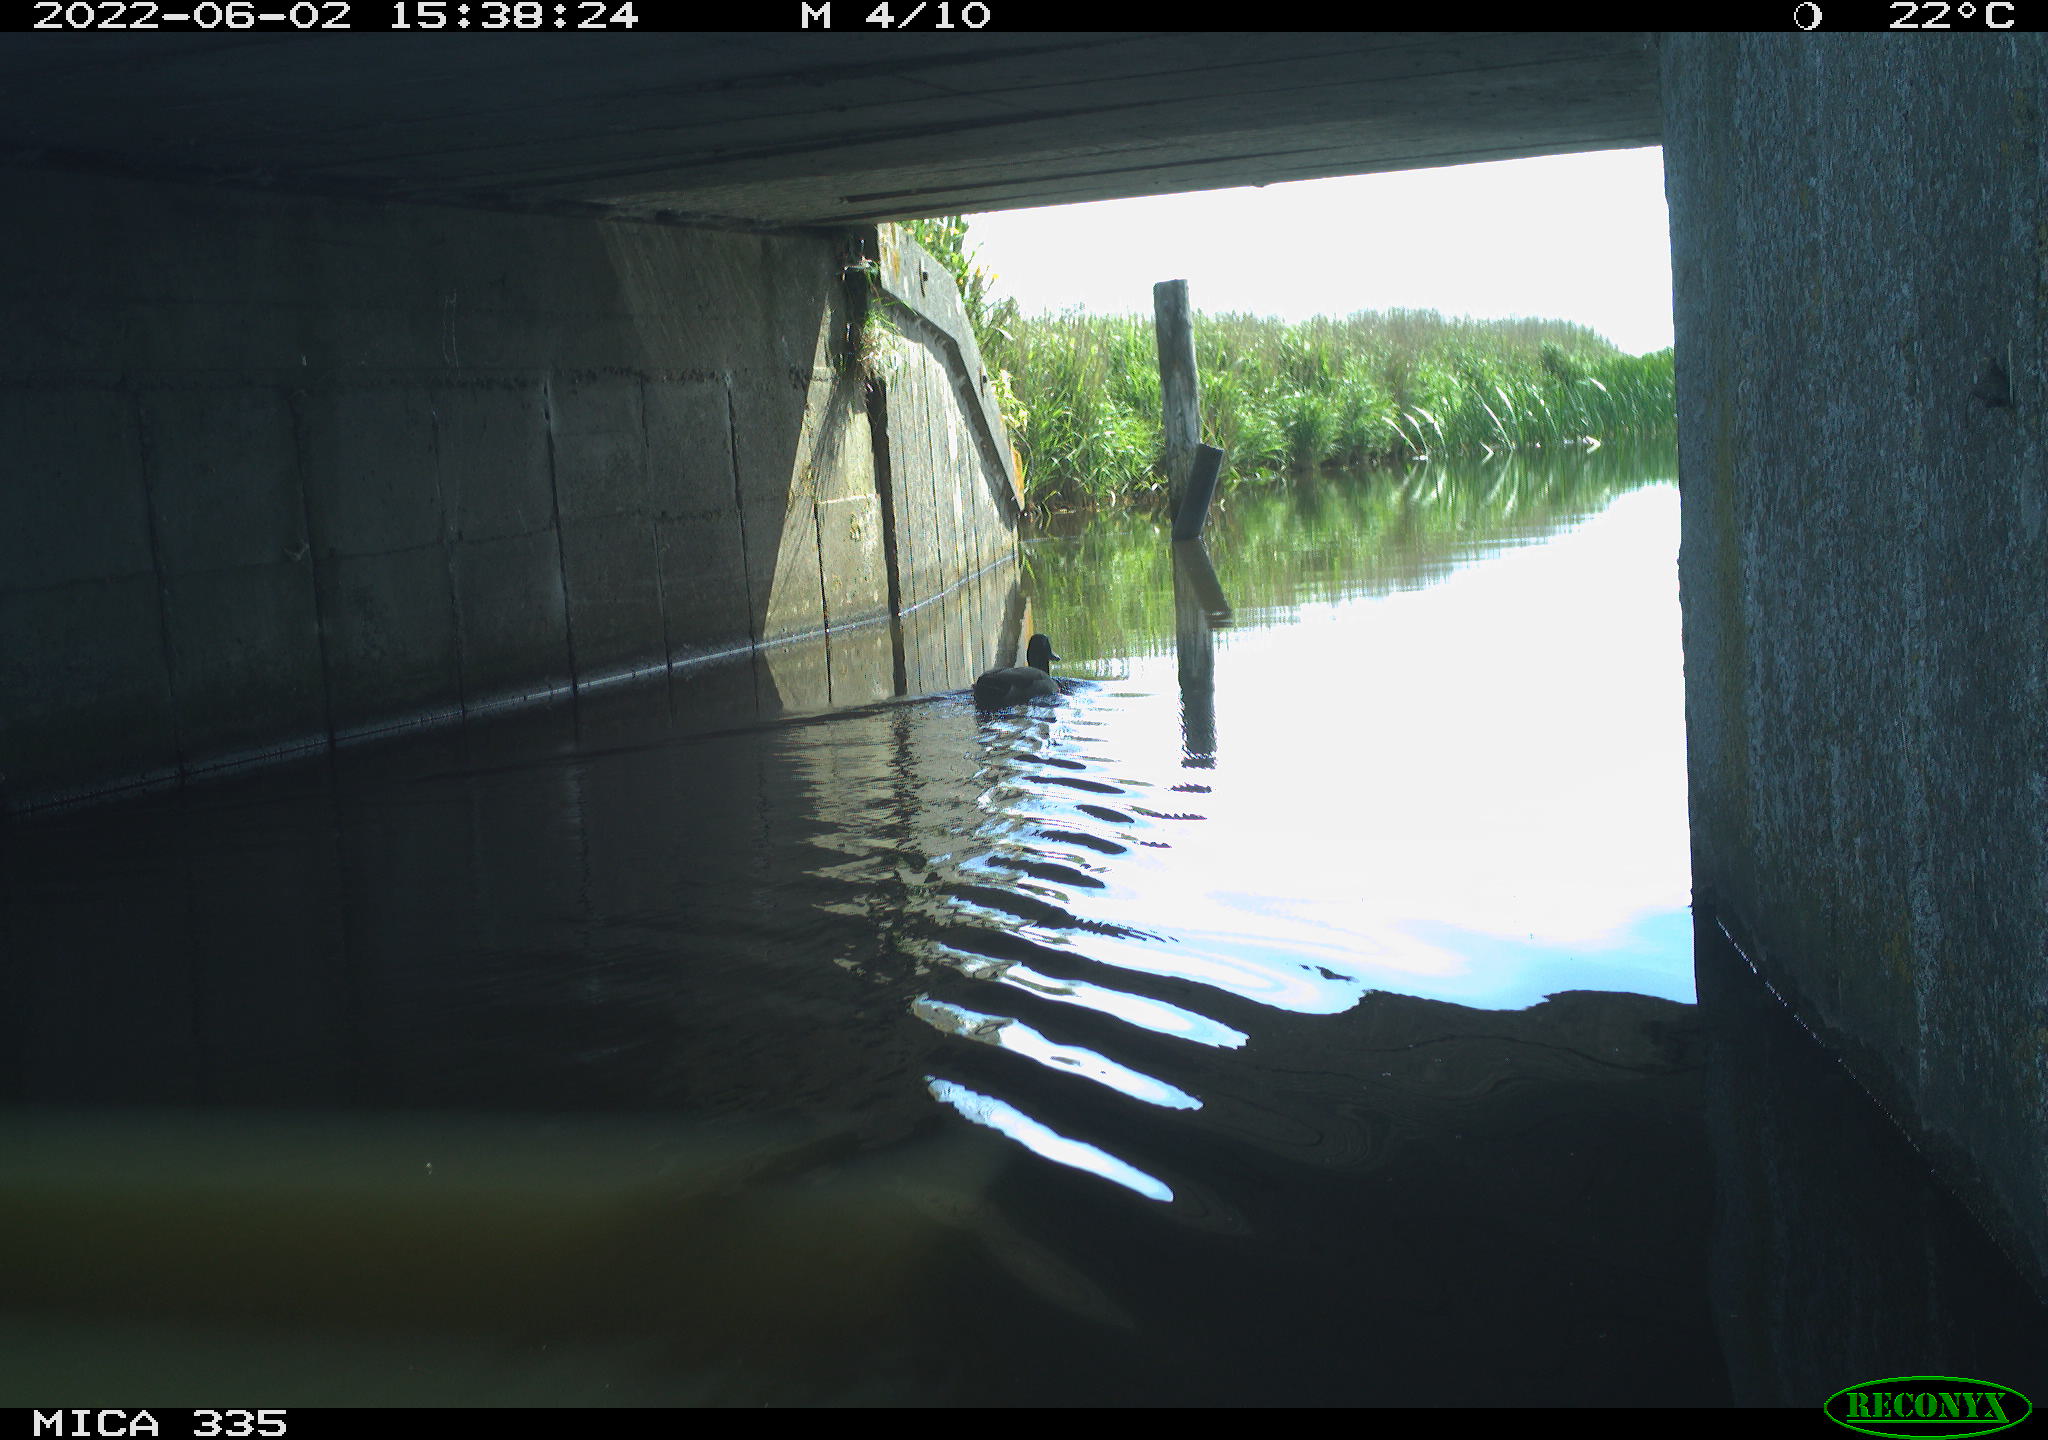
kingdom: Animalia
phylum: Chordata
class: Aves
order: Anseriformes
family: Anatidae
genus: Anas
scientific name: Anas platyrhynchos
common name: Mallard
